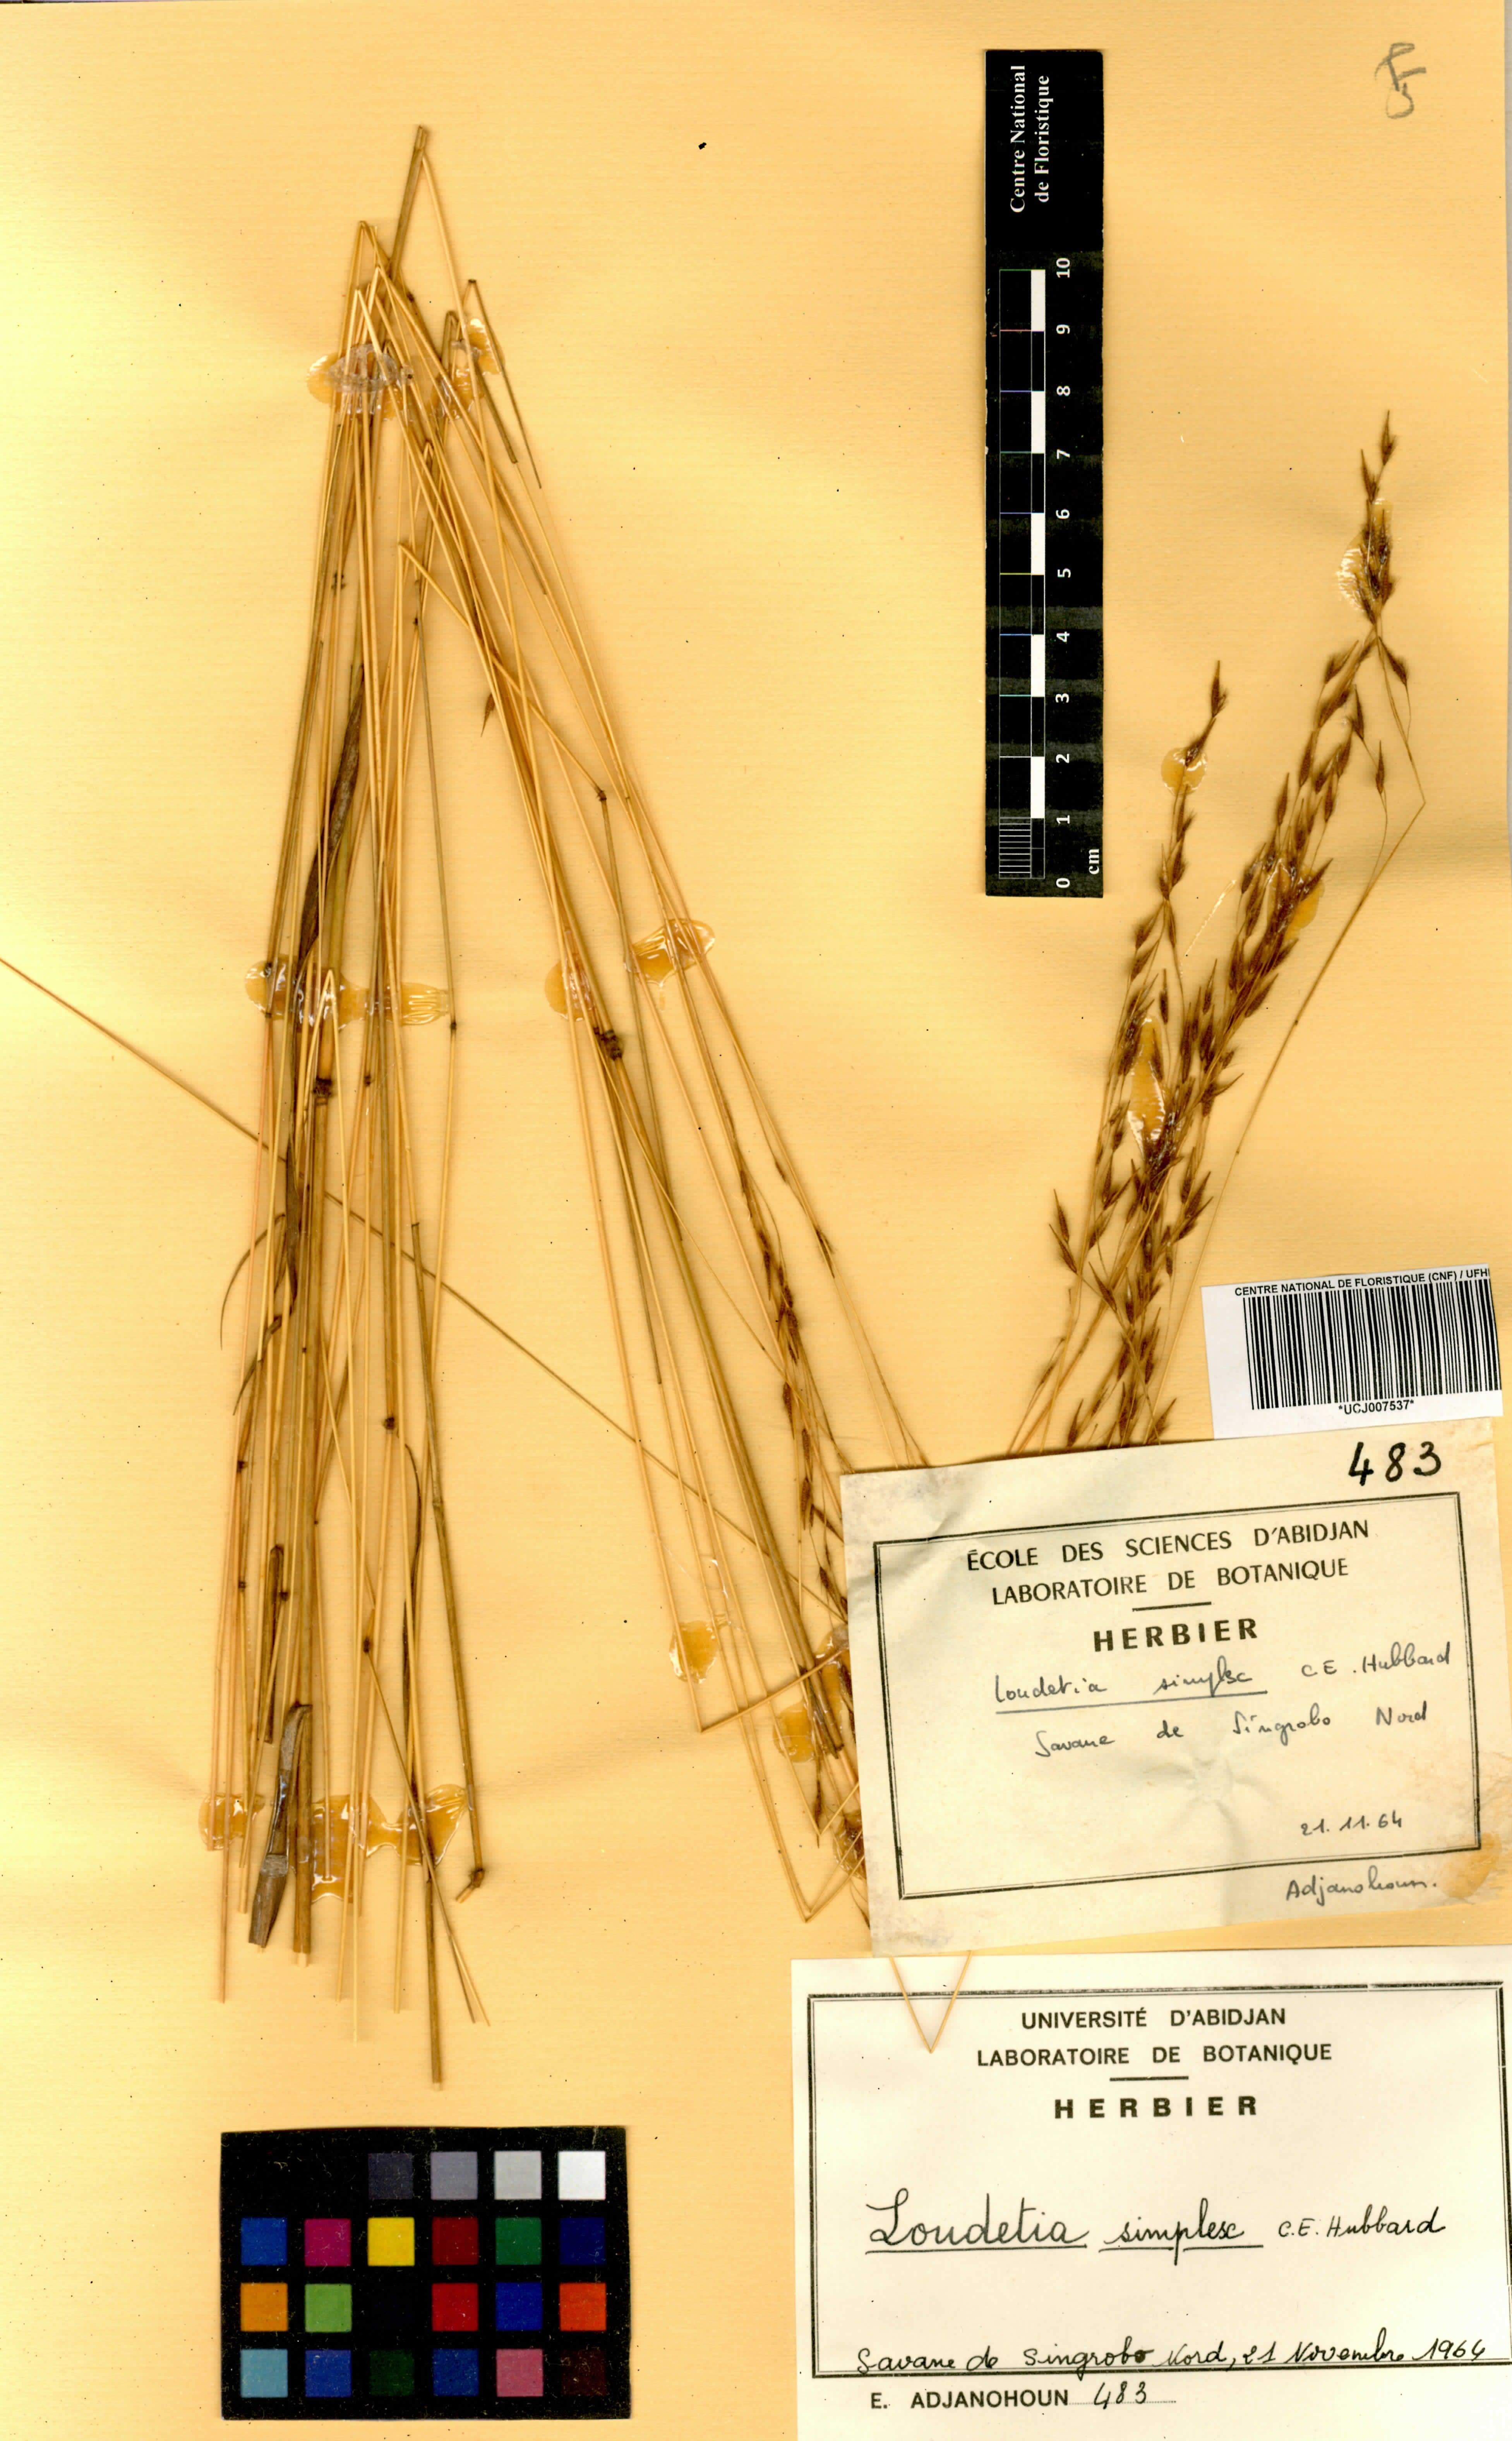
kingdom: Plantae
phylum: Tracheophyta
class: Liliopsida
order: Poales
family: Poaceae
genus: Loudetia
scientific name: Loudetia simplex
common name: Common russet grass
